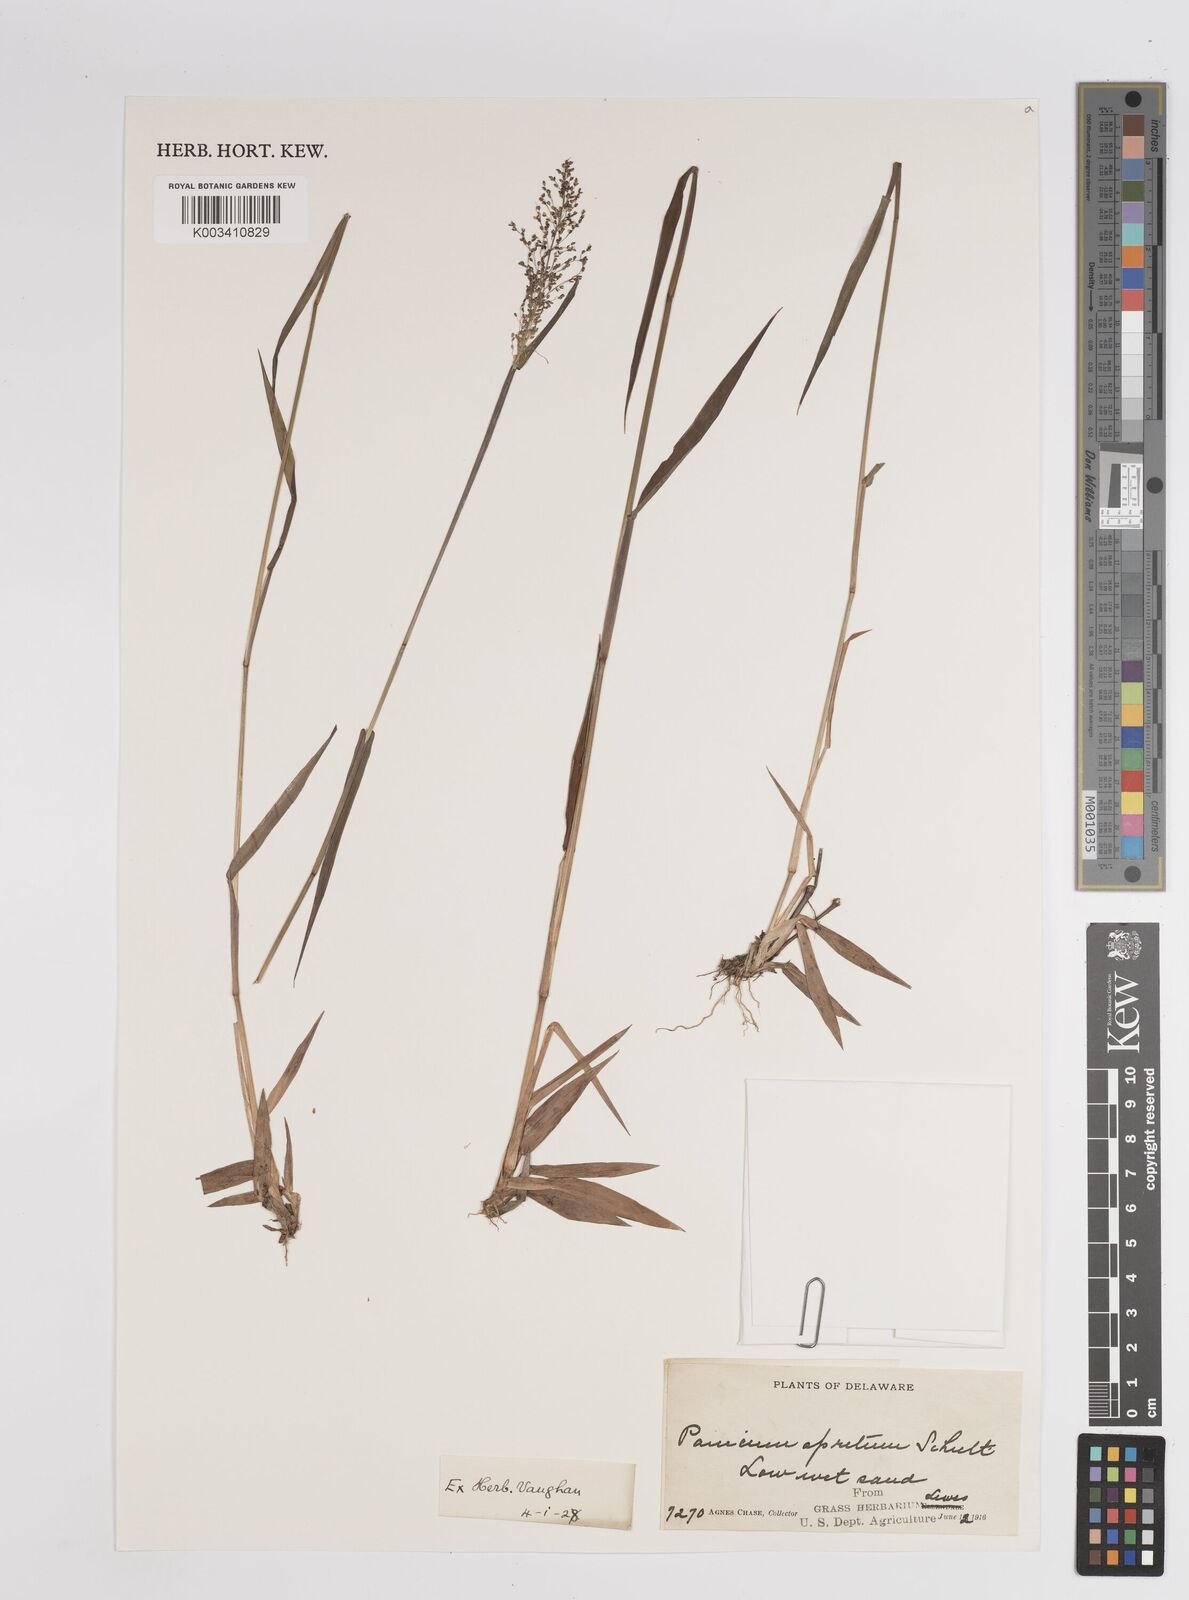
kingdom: Plantae
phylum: Tracheophyta
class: Liliopsida
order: Poales
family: Poaceae
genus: Dichanthelium
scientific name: Dichanthelium implicatum
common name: Slender-stemmed panicgrass
